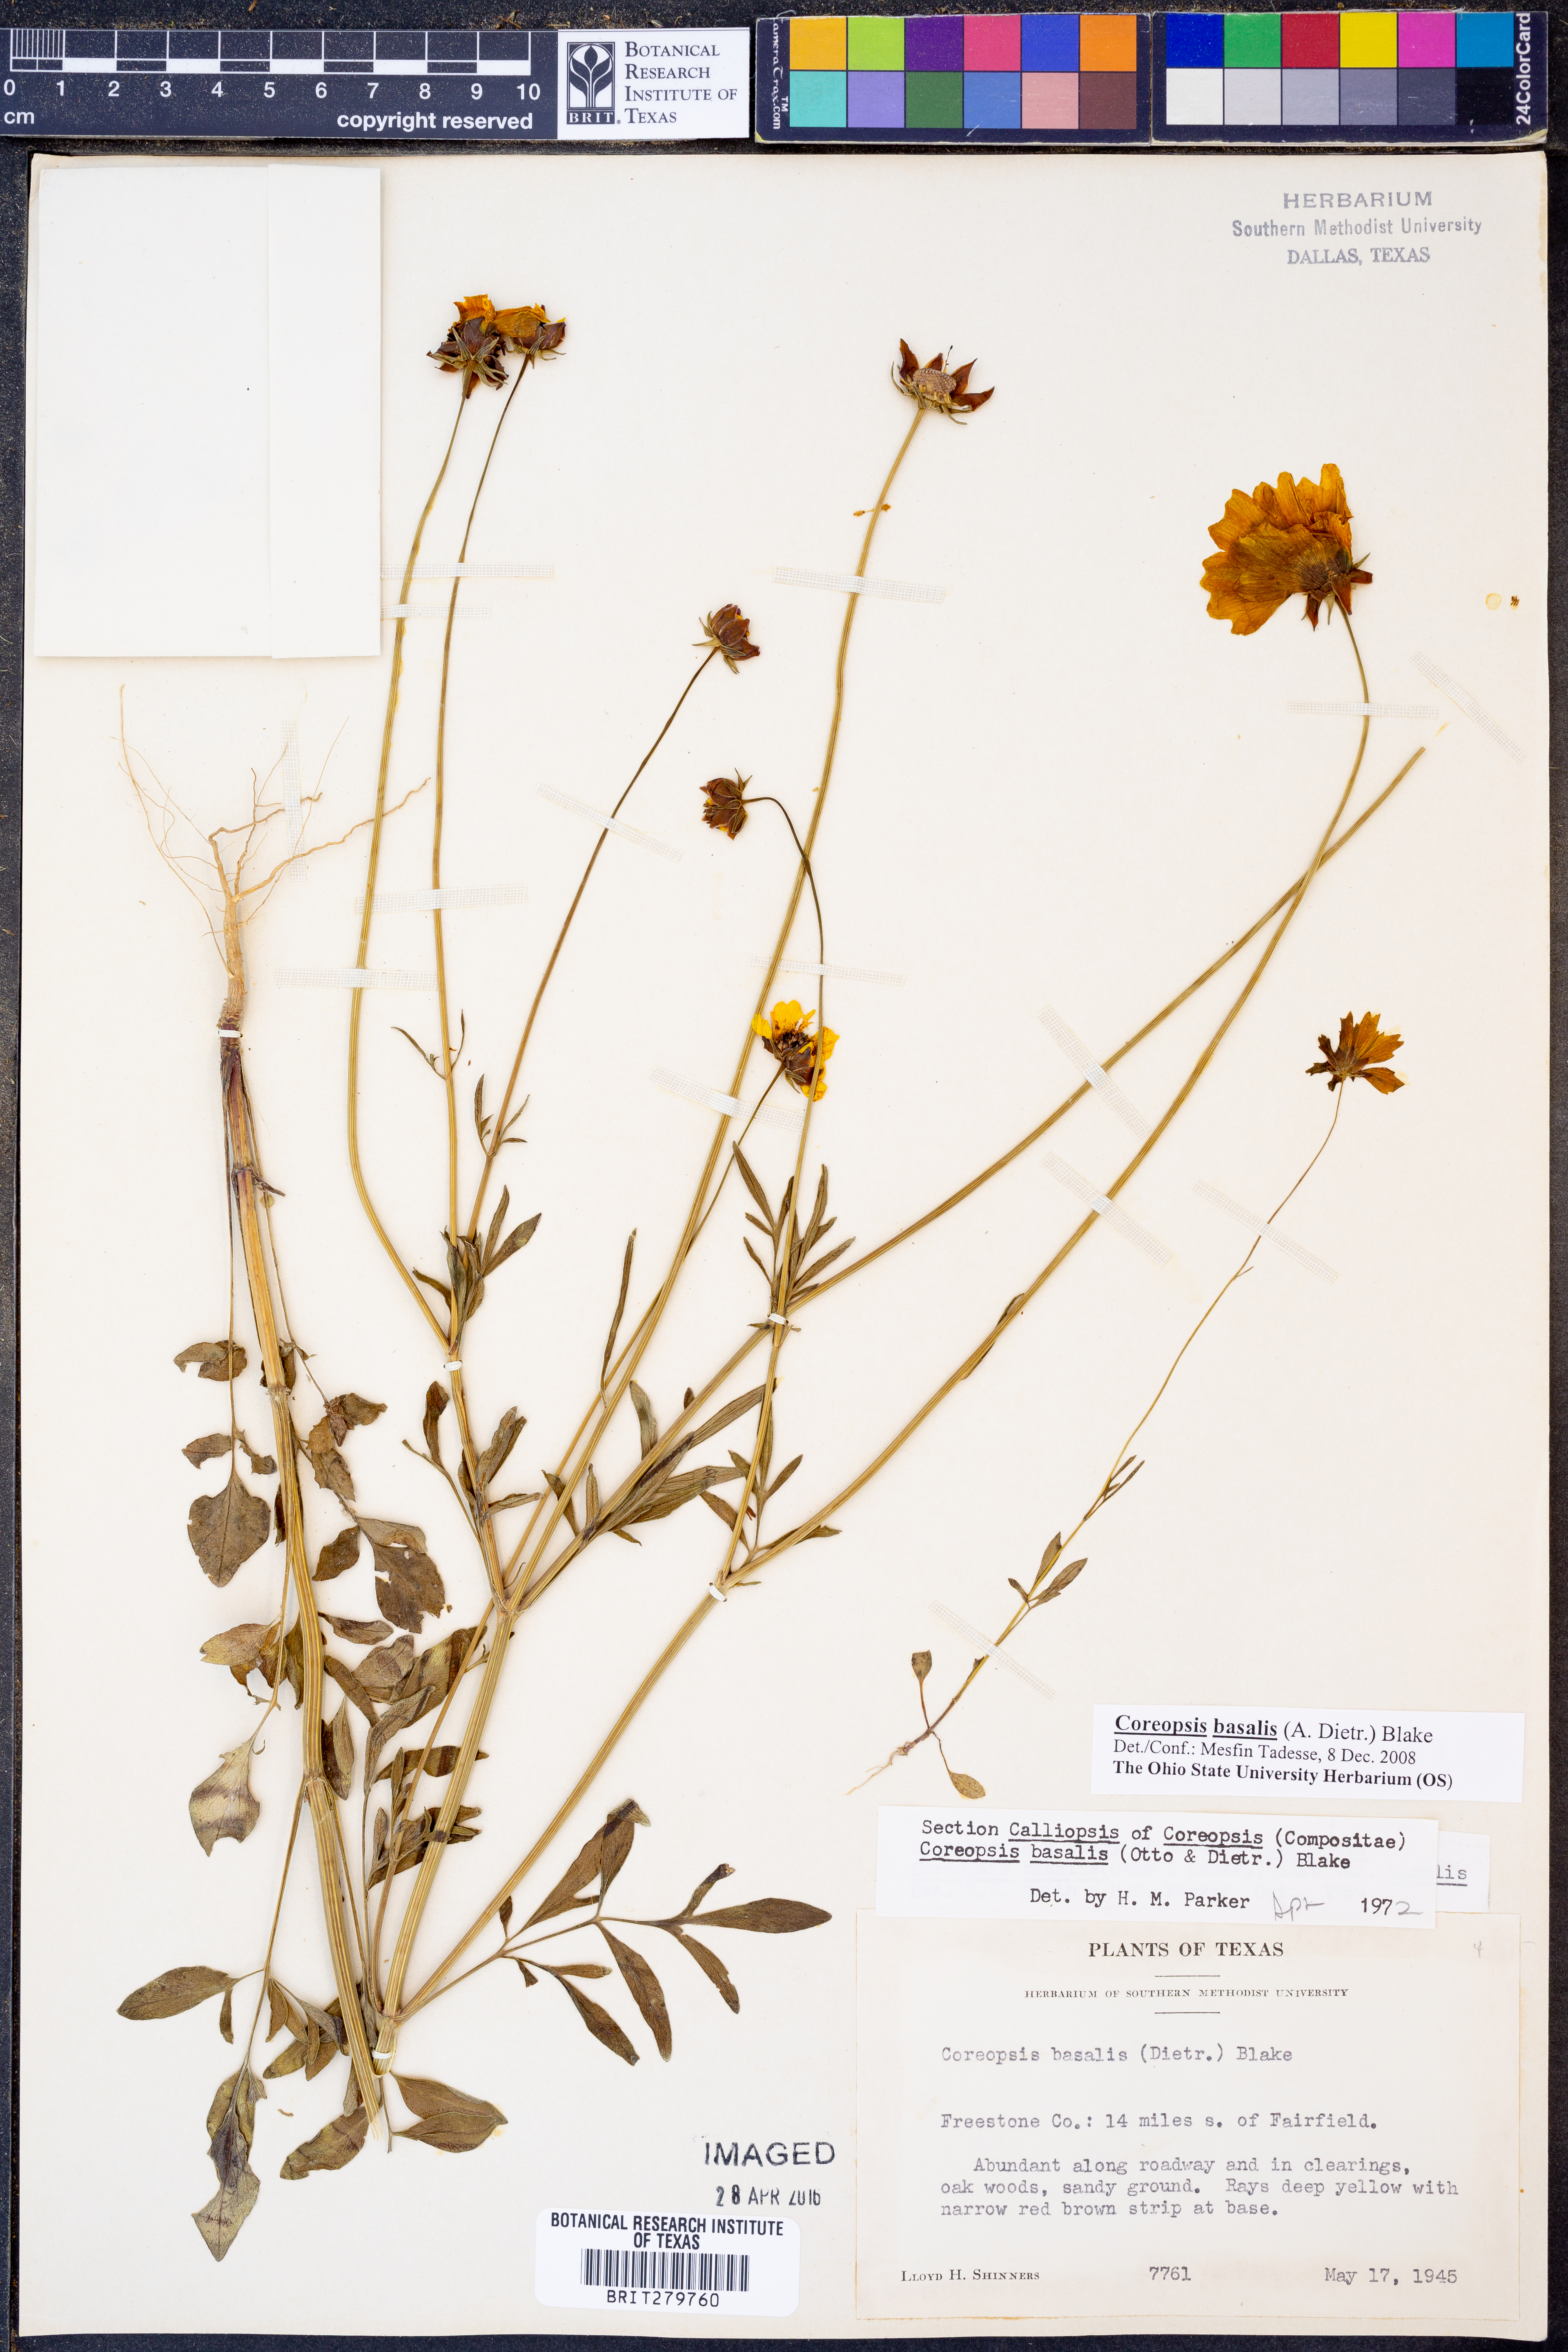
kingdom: Plantae
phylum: Tracheophyta
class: Magnoliopsida
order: Asterales
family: Asteraceae
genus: Coreopsis
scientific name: Coreopsis basalis
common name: Golden-mane coreopsis
